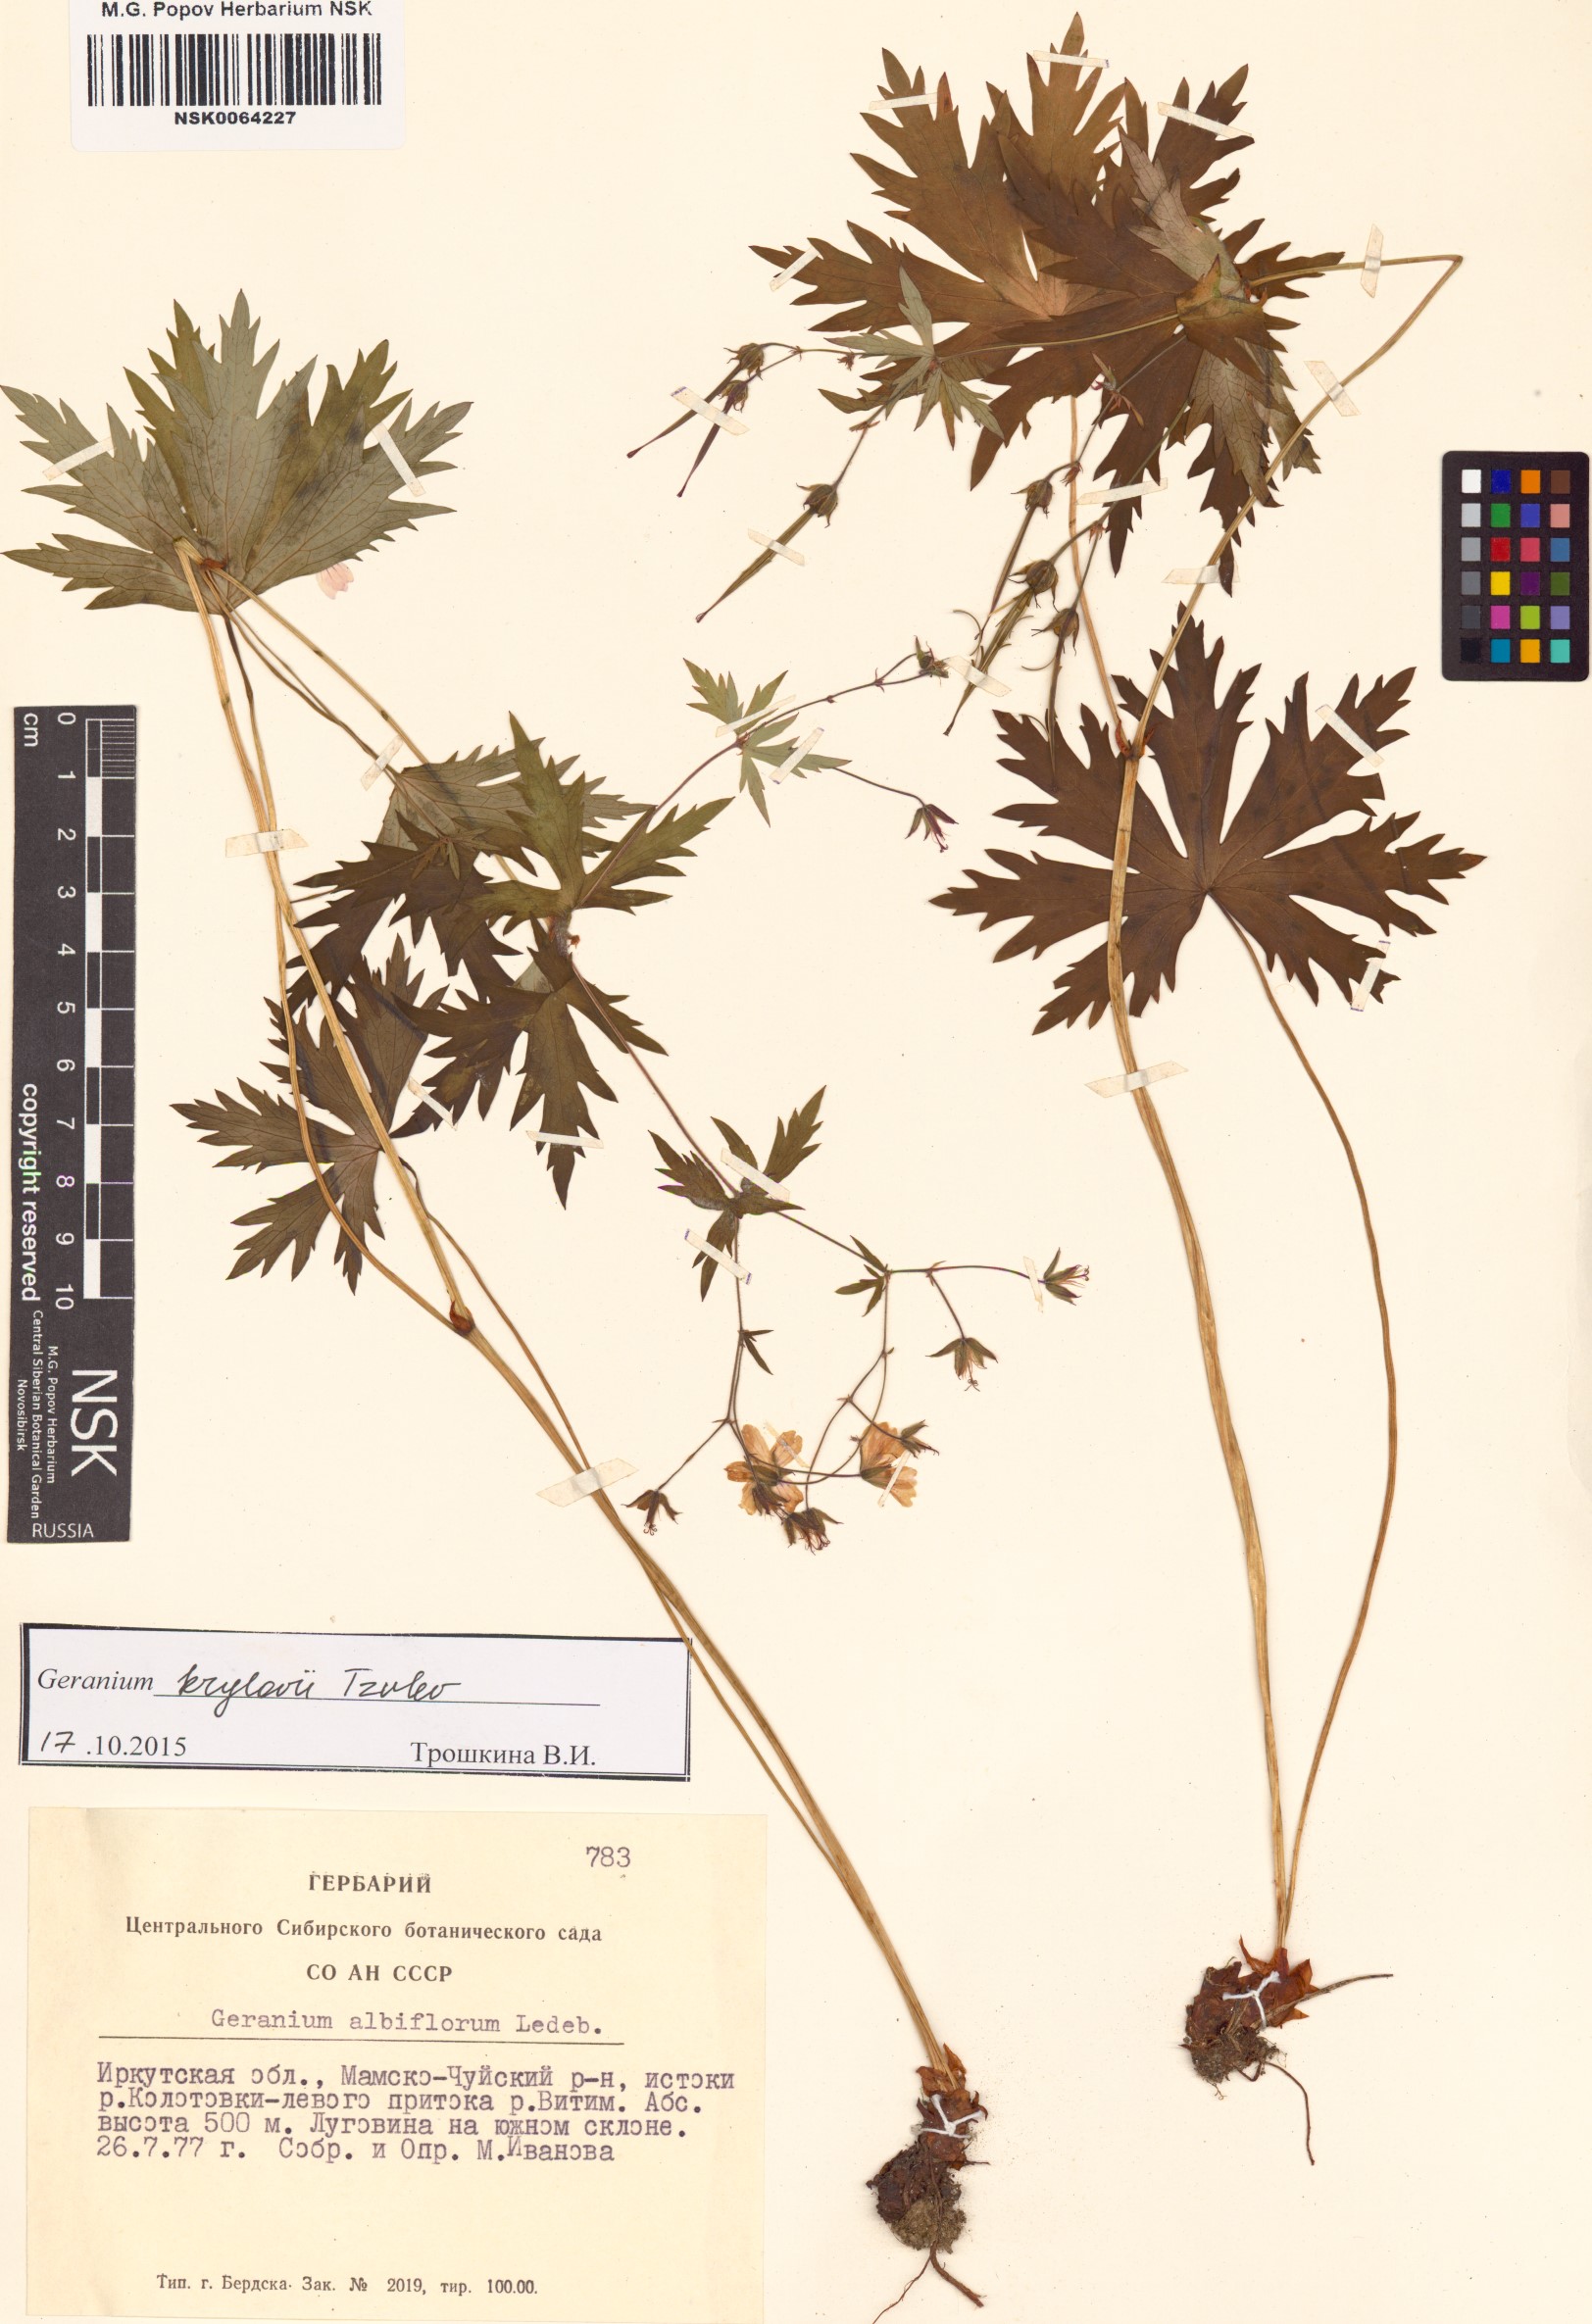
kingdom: Plantae
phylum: Tracheophyta
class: Magnoliopsida
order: Geraniales
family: Geraniaceae
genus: Geranium
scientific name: Geranium sylvaticum
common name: Wood crane's-bill
